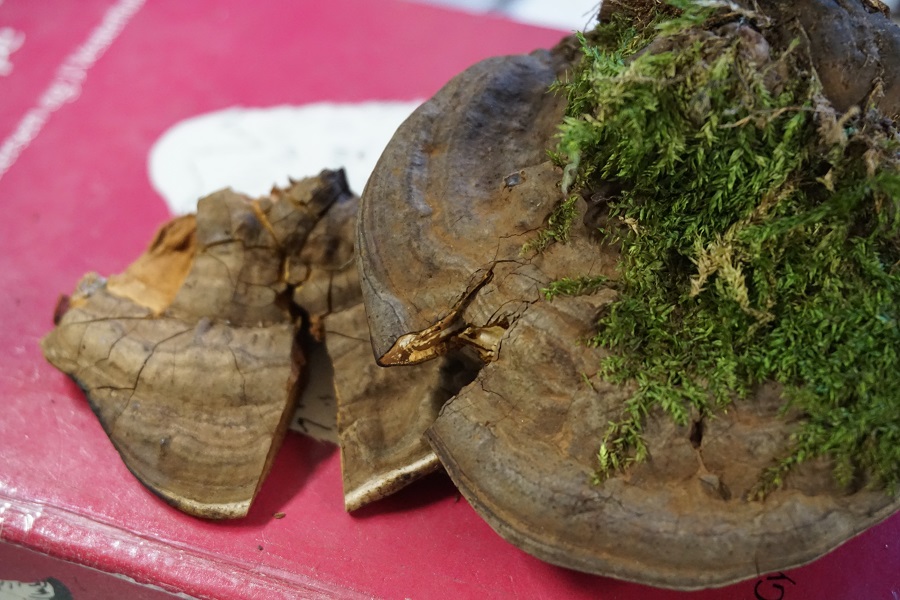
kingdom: Fungi
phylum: Basidiomycota
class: Agaricomycetes
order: Polyporales
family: Polyporaceae
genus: Ganoderma
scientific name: Ganoderma applanatum
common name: flad lakporesvamp
